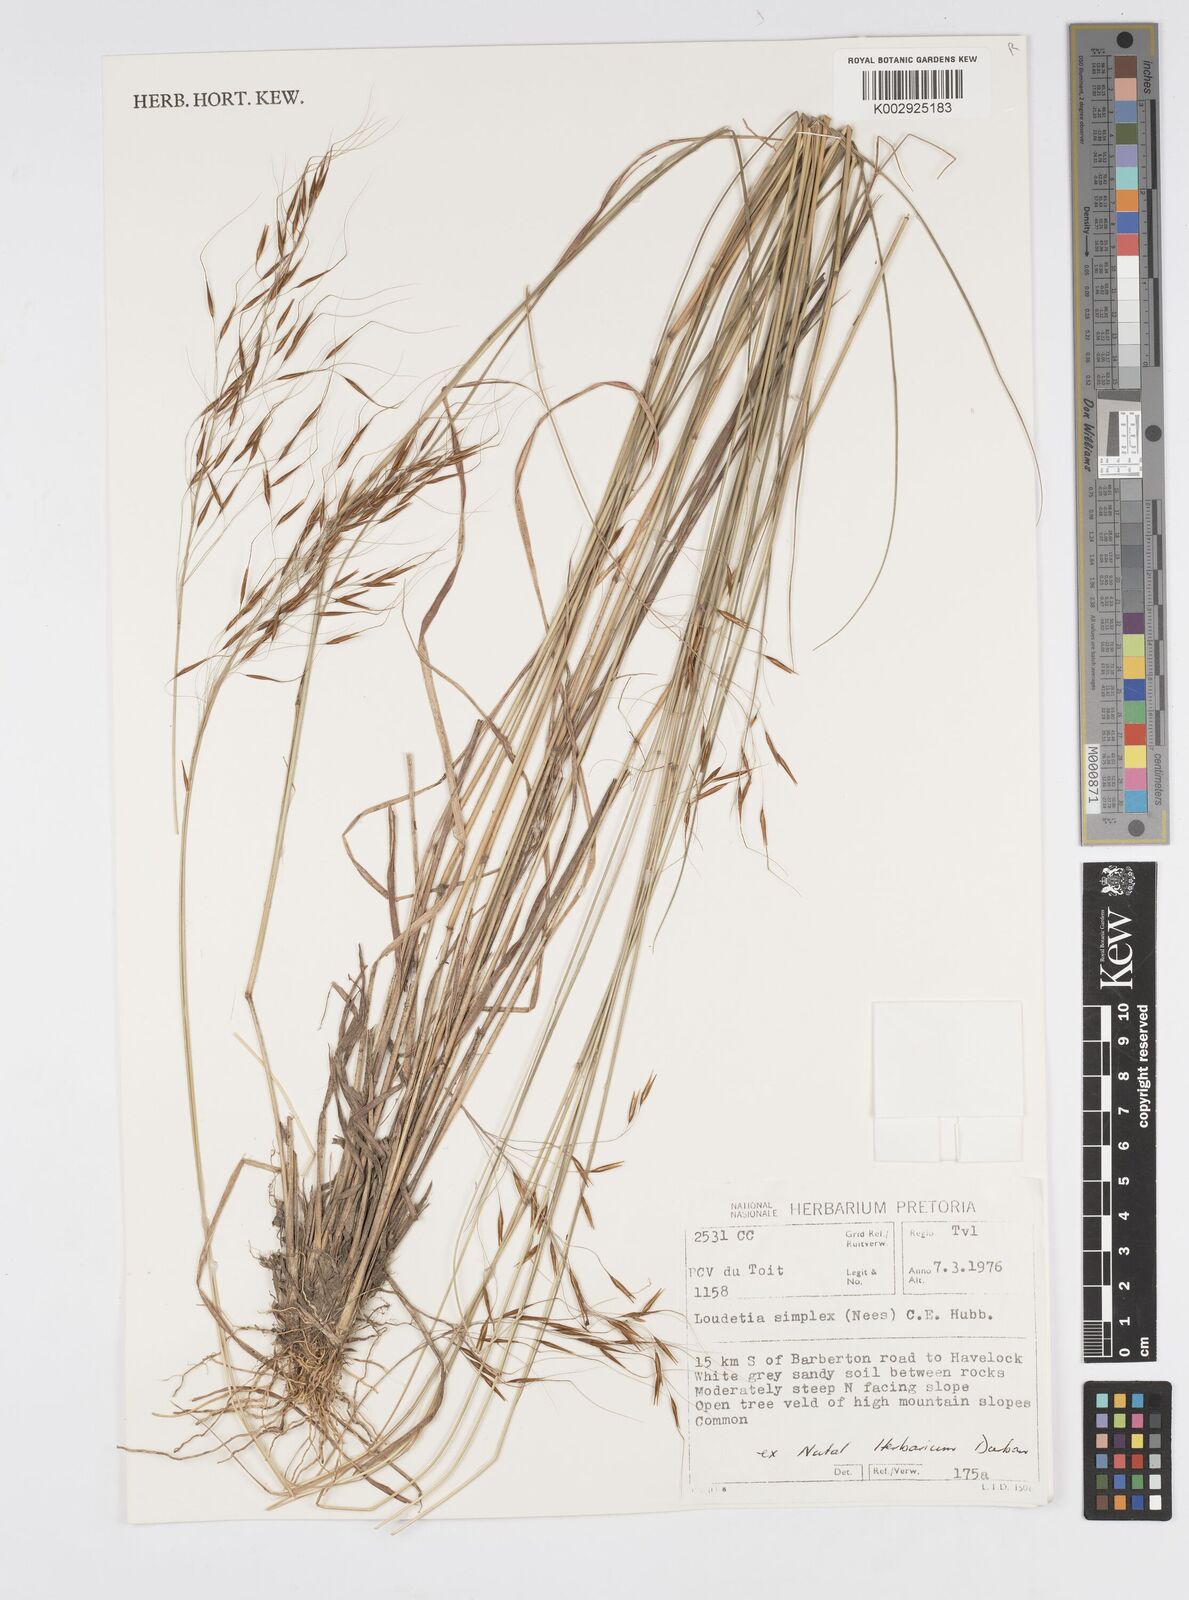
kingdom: Plantae
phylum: Tracheophyta
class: Liliopsida
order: Poales
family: Poaceae
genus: Loudetia
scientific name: Loudetia simplex
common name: Common russet grass
